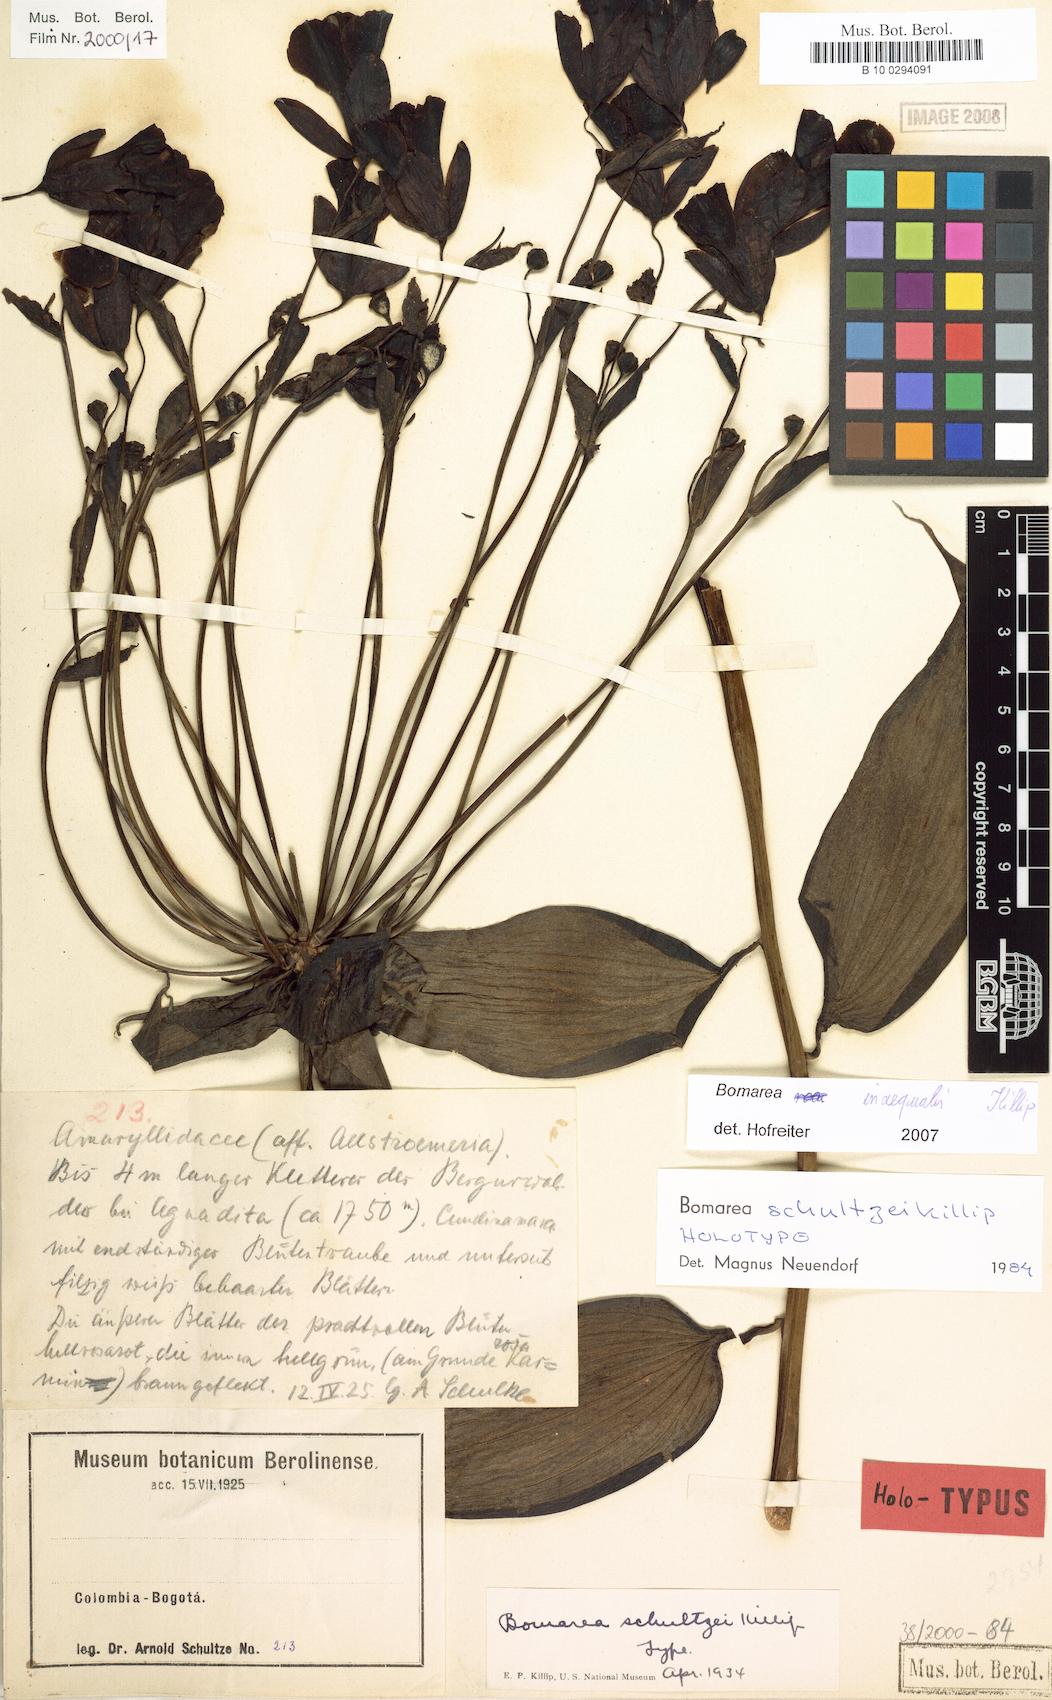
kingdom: Plantae
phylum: Tracheophyta
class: Liliopsida
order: Liliales
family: Alstroemeriaceae
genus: Bomarea
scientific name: Bomarea inaequalis
